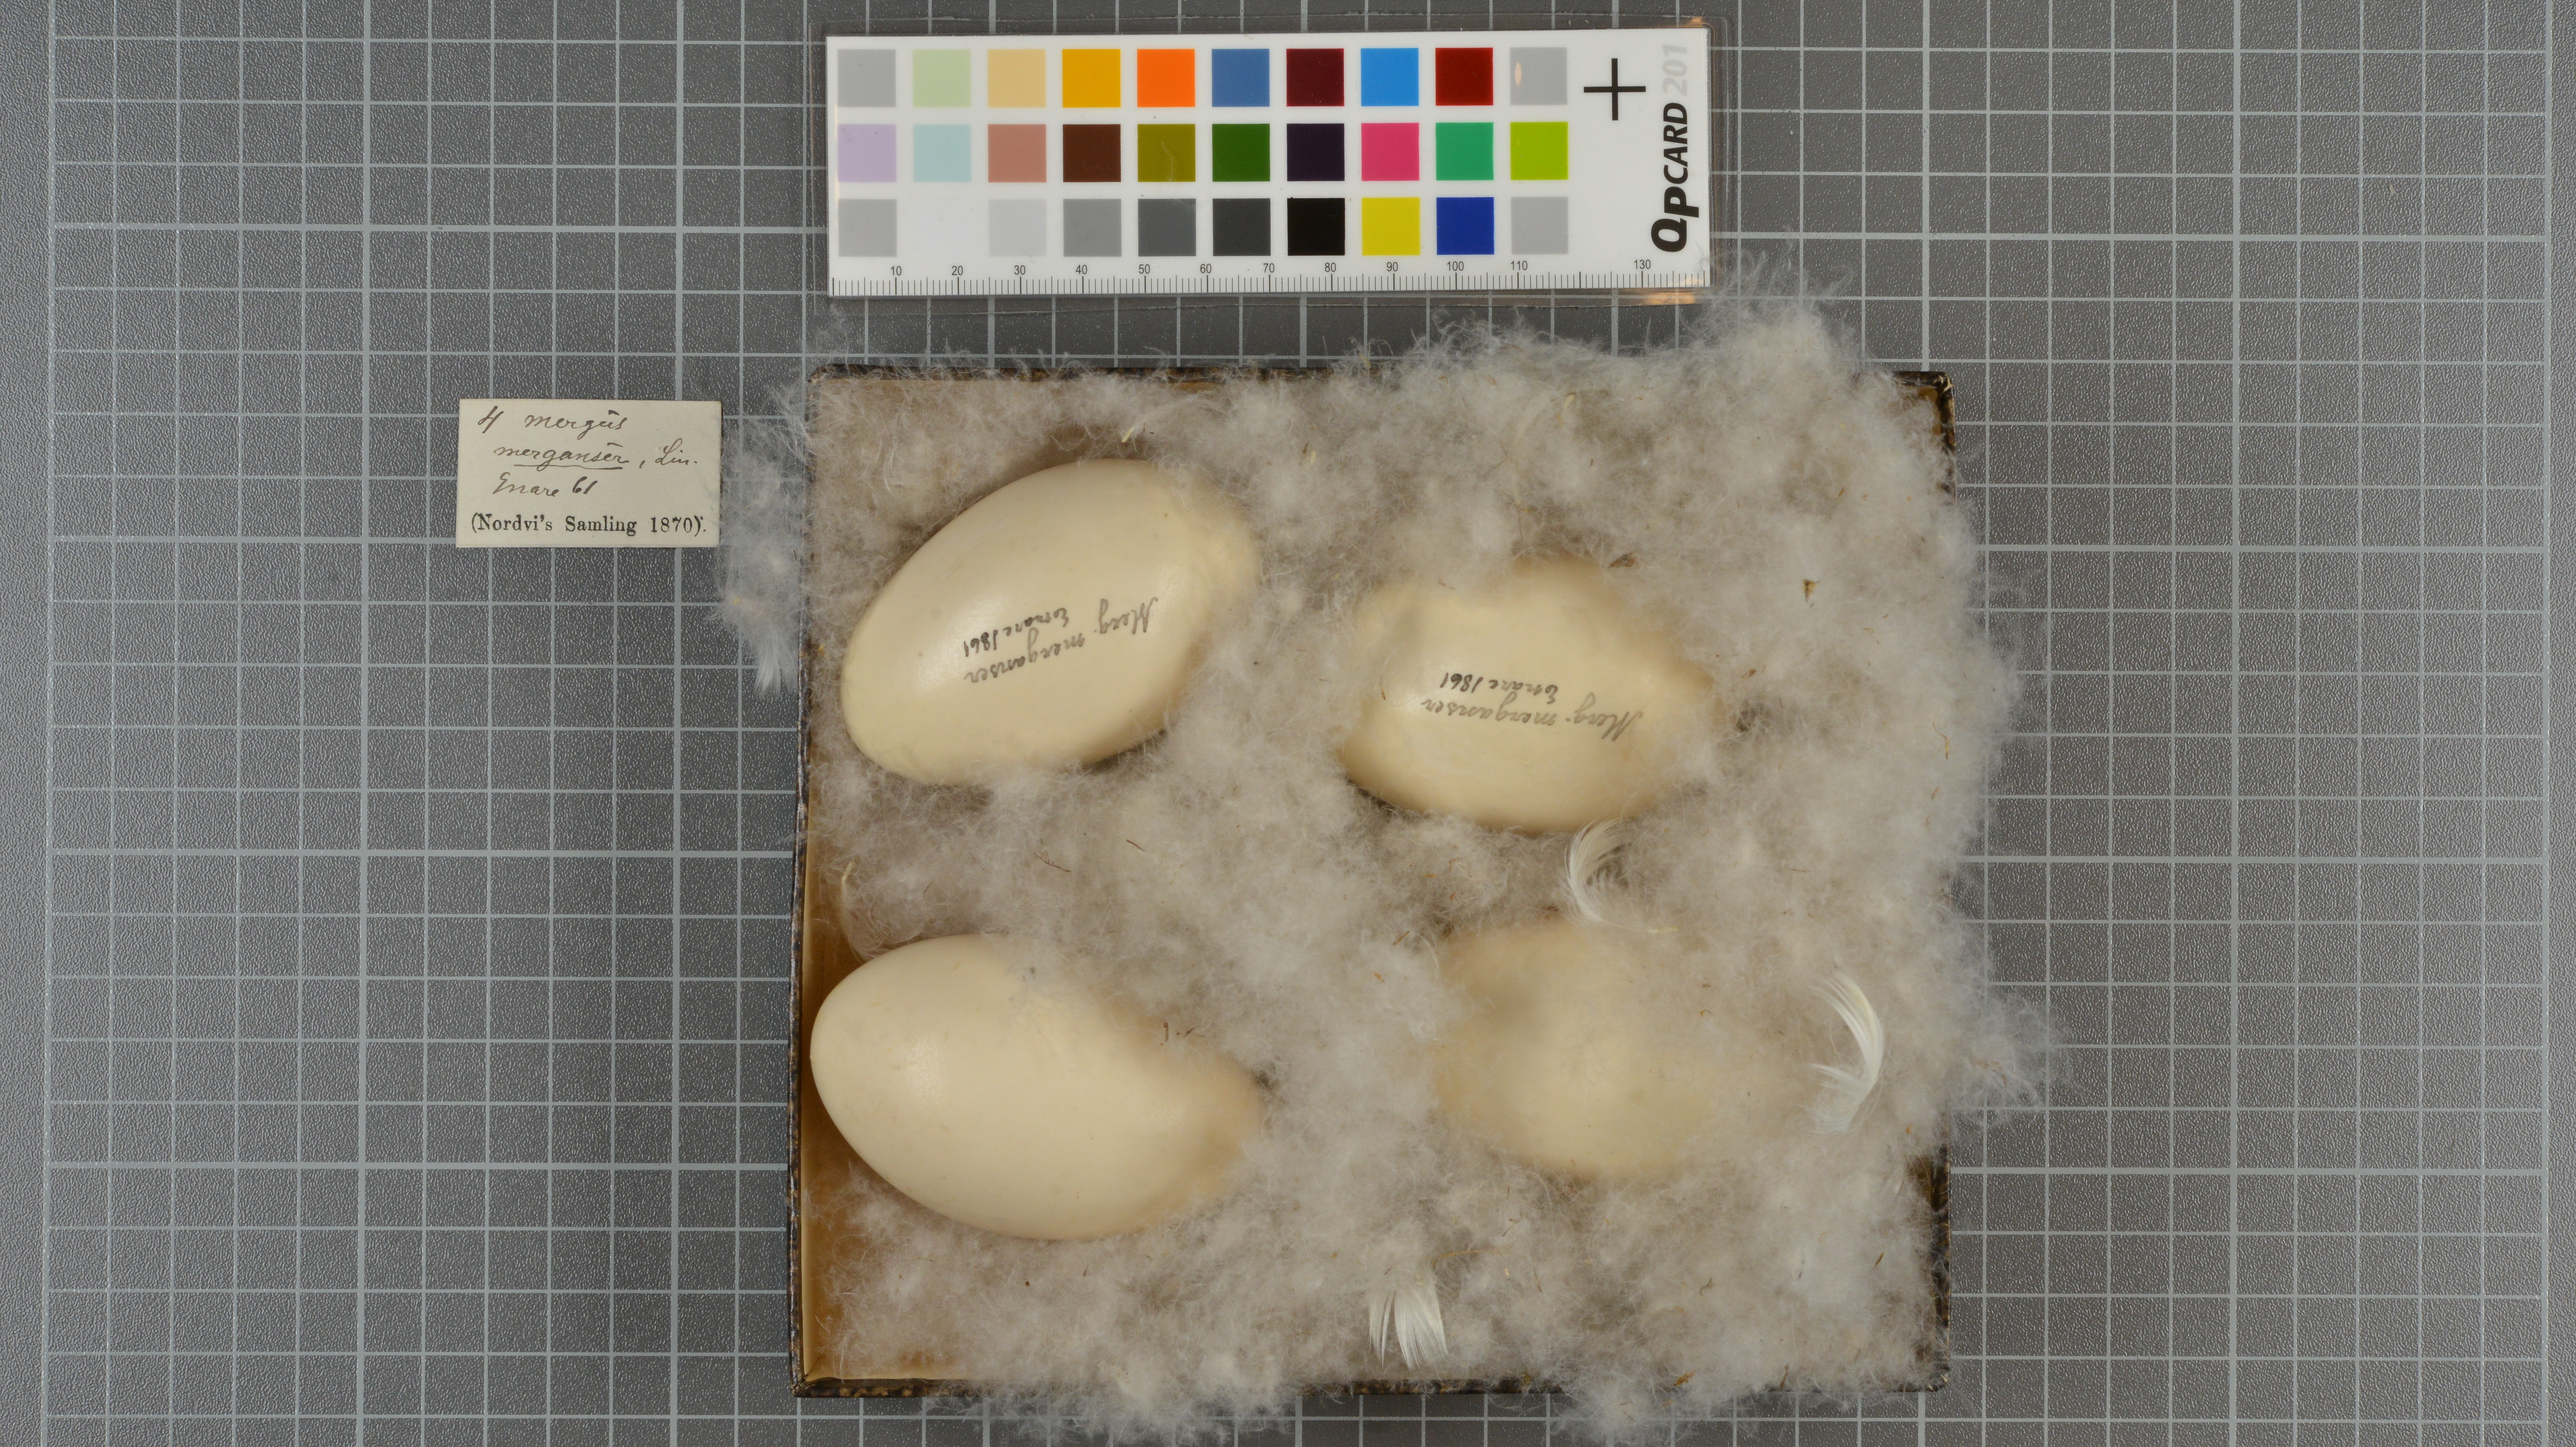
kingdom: Animalia
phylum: Chordata
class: Aves
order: Anseriformes
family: Anatidae
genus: Mergus
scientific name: Mergus merganser
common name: Common merganser
